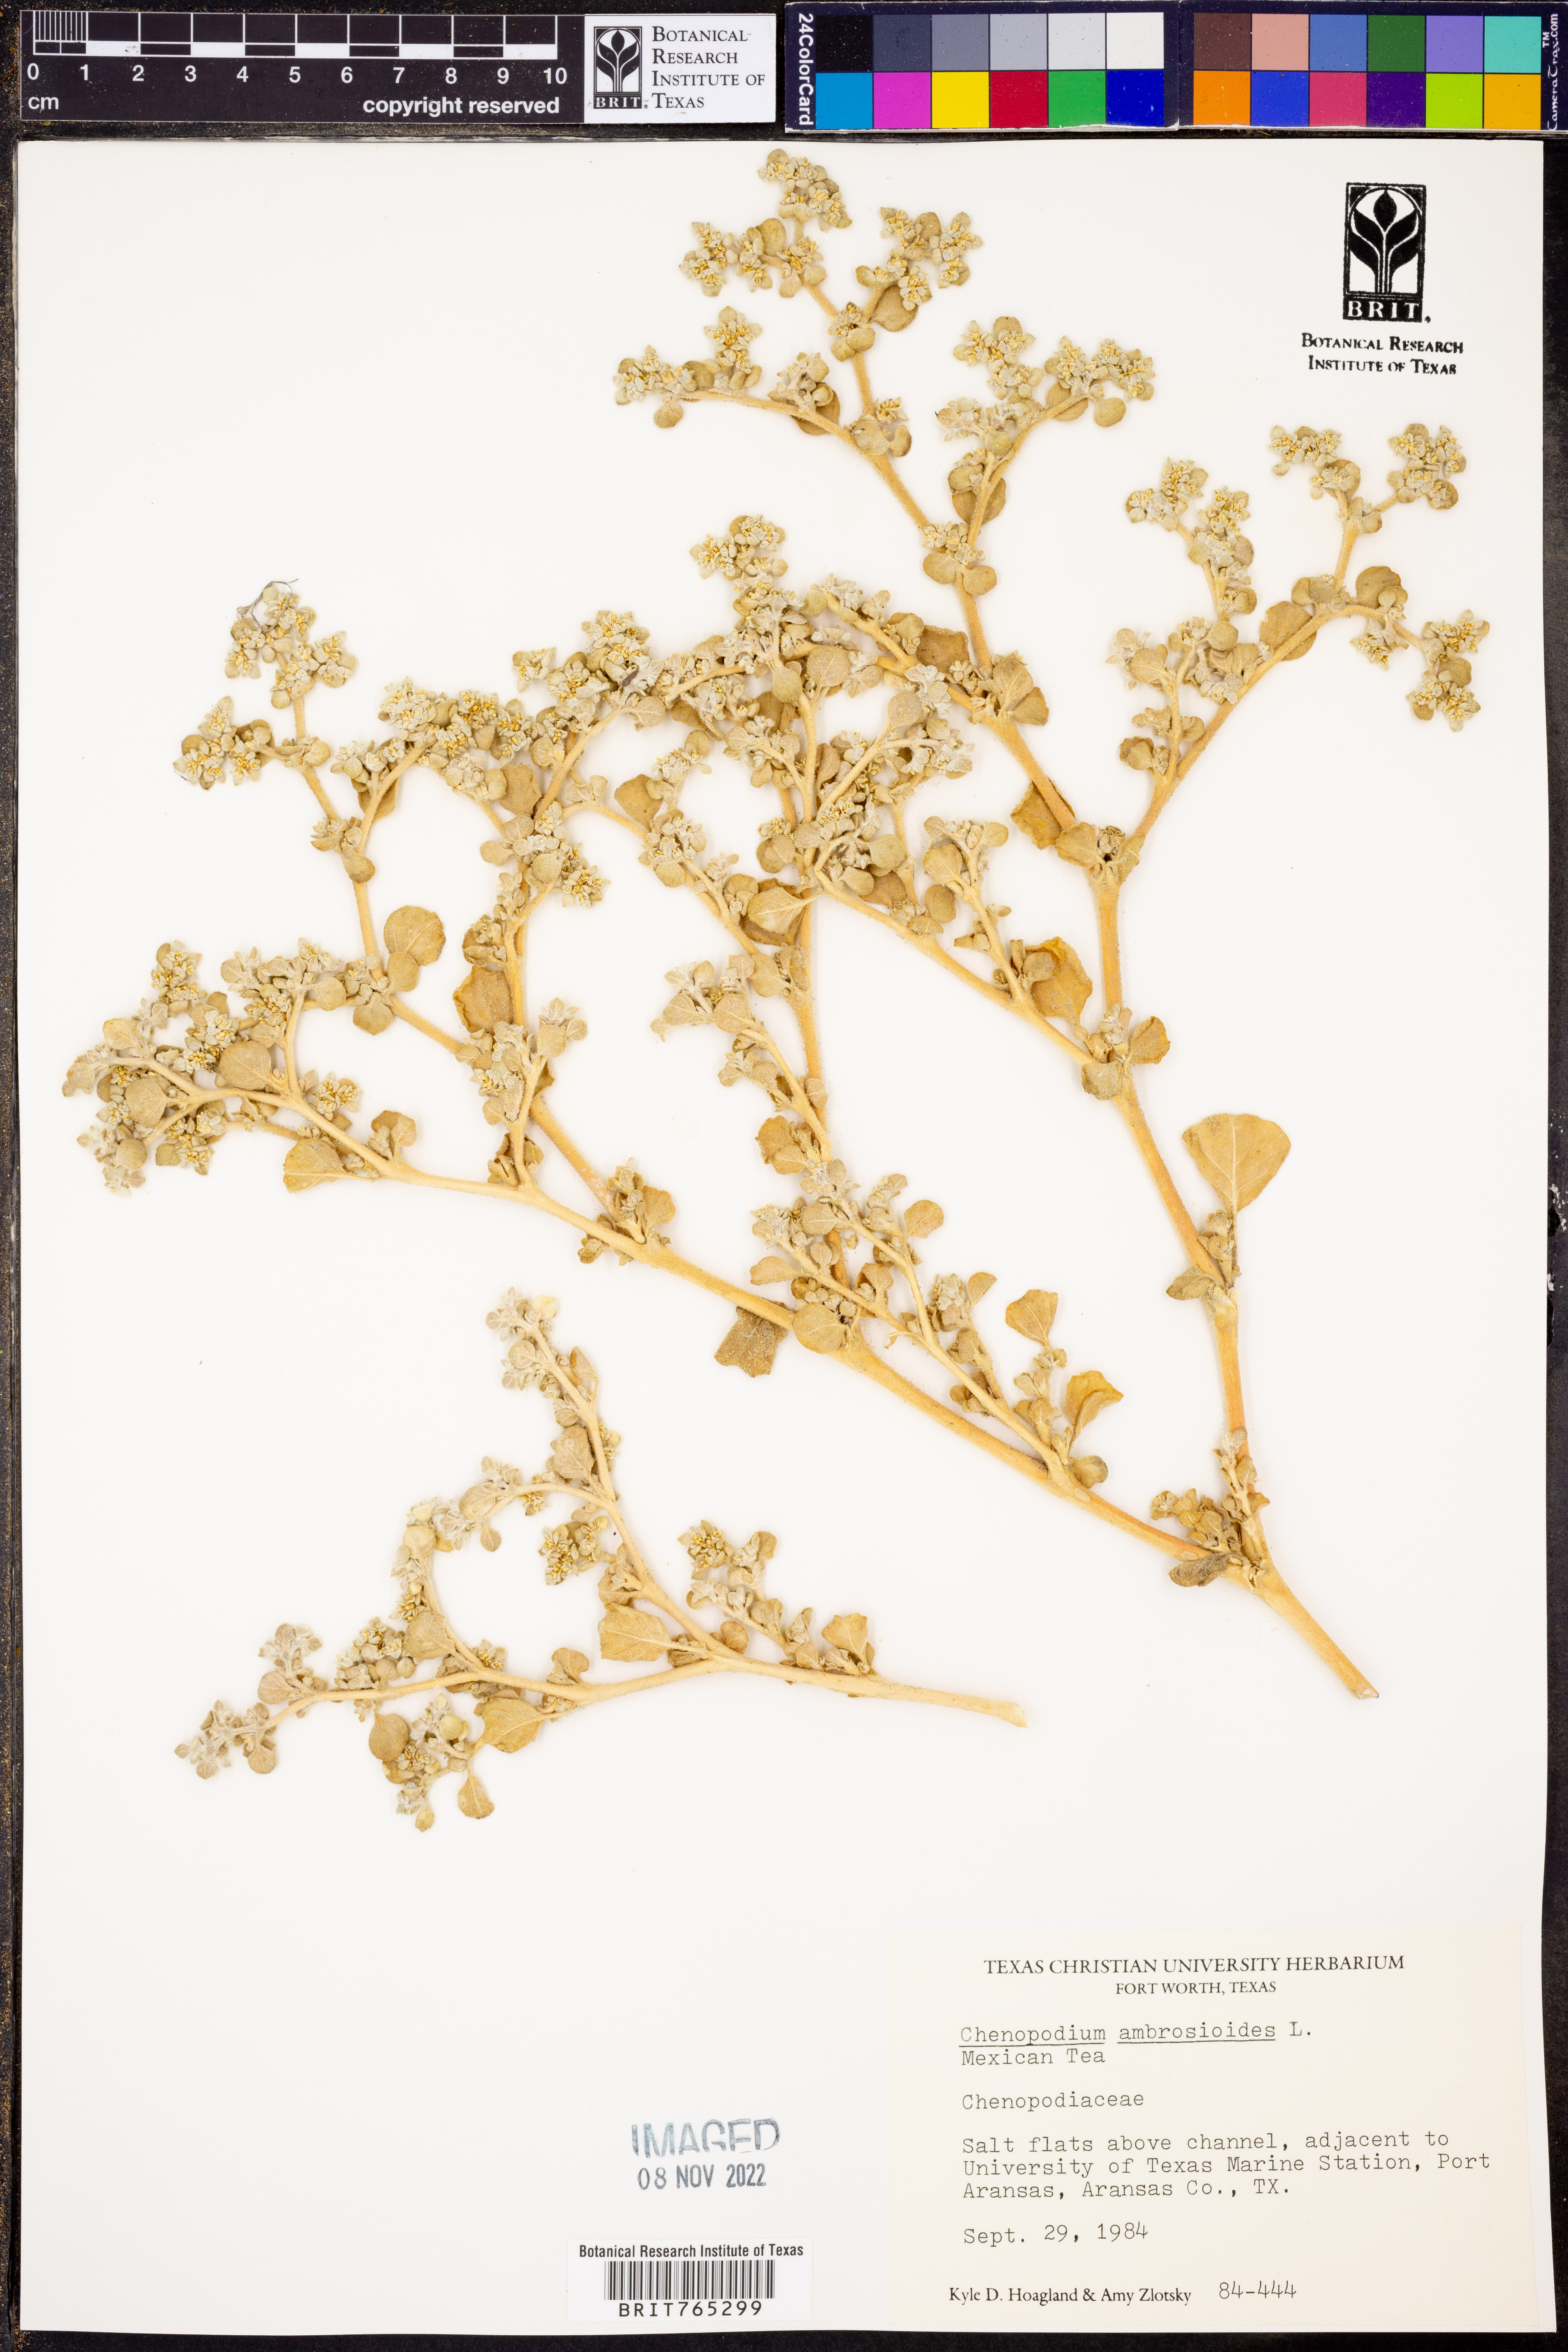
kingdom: Plantae
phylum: Tracheophyta
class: Magnoliopsida
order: Caryophyllales
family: Amaranthaceae
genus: Dysphania
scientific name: Dysphania ambrosioides
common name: Wormseed
